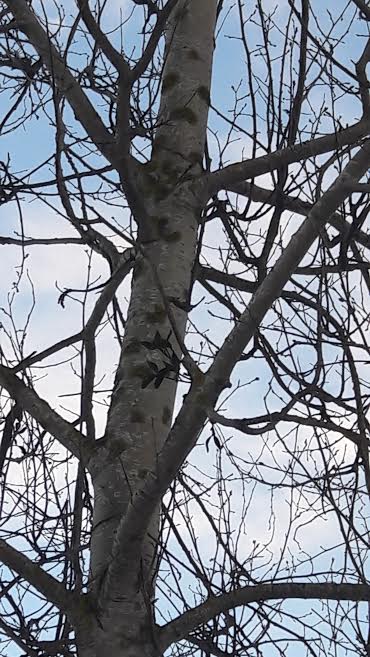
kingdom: Plantae
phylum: Tracheophyta
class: Magnoliopsida
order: Santalales
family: Viscaceae
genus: Viscum
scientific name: Viscum album
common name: Mistletoe
